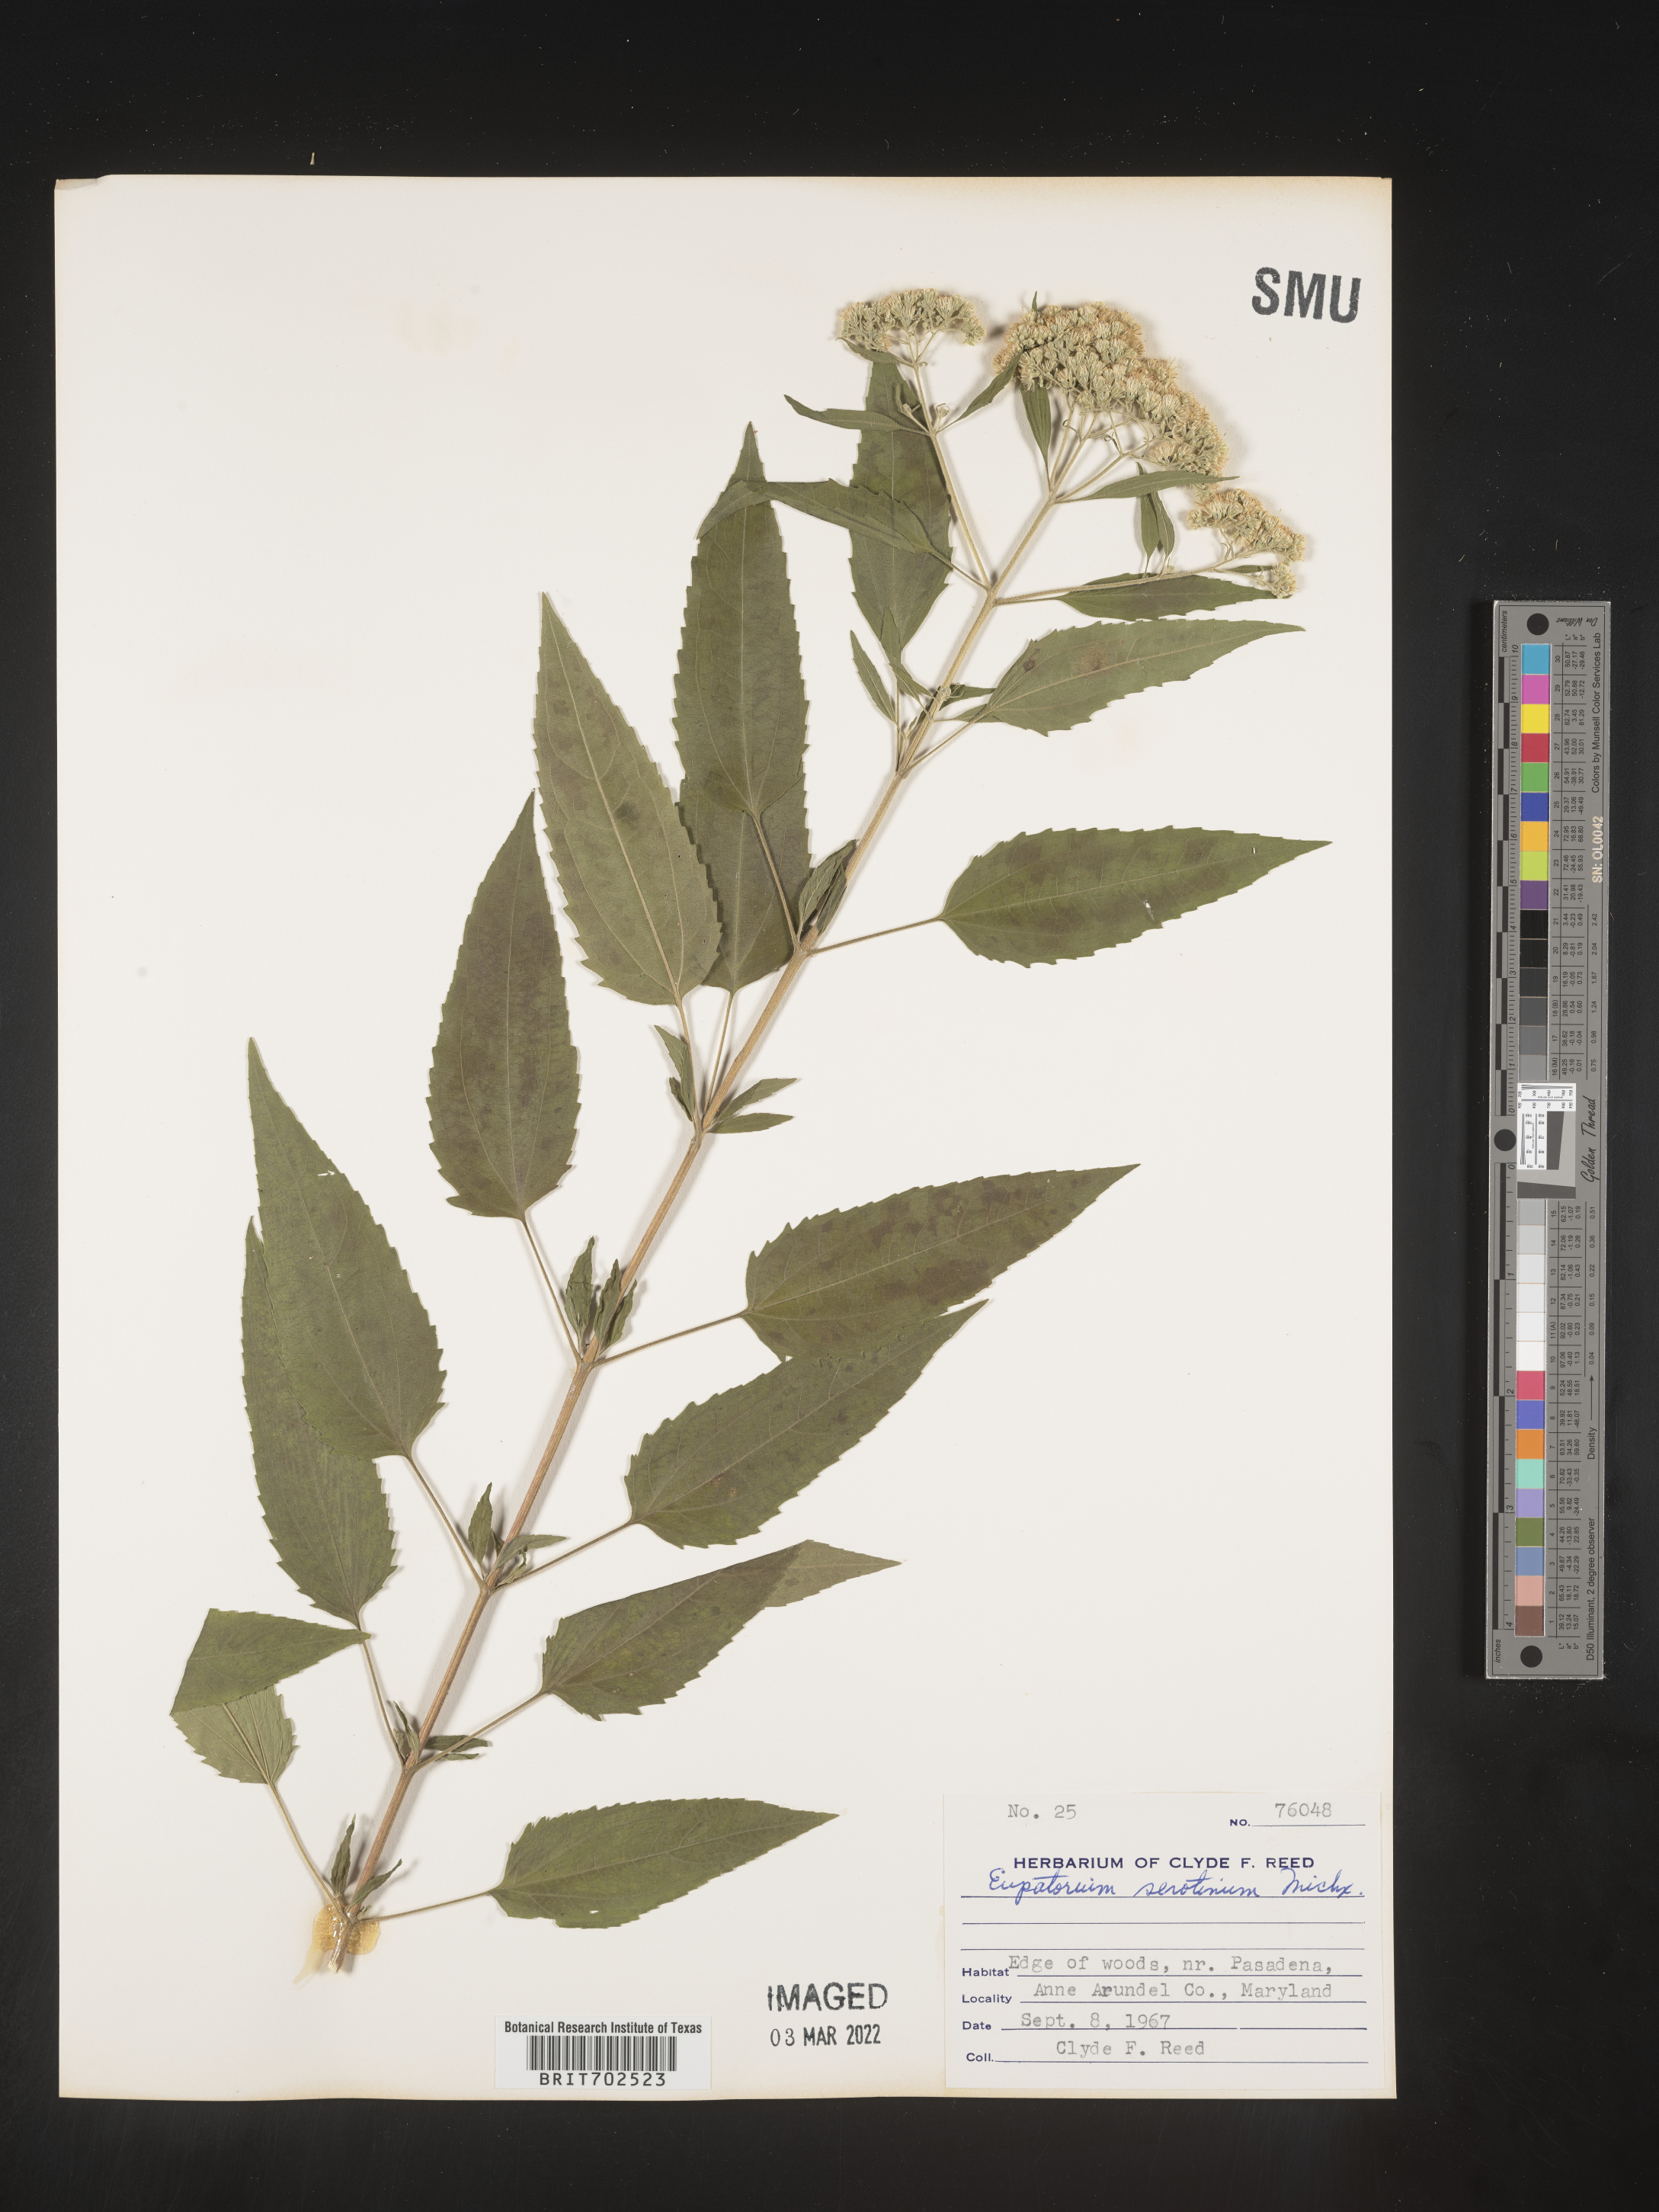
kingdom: Plantae
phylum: Tracheophyta
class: Magnoliopsida
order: Asterales
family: Asteraceae
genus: Eupatorium
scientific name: Eupatorium serotinum
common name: Late boneset
